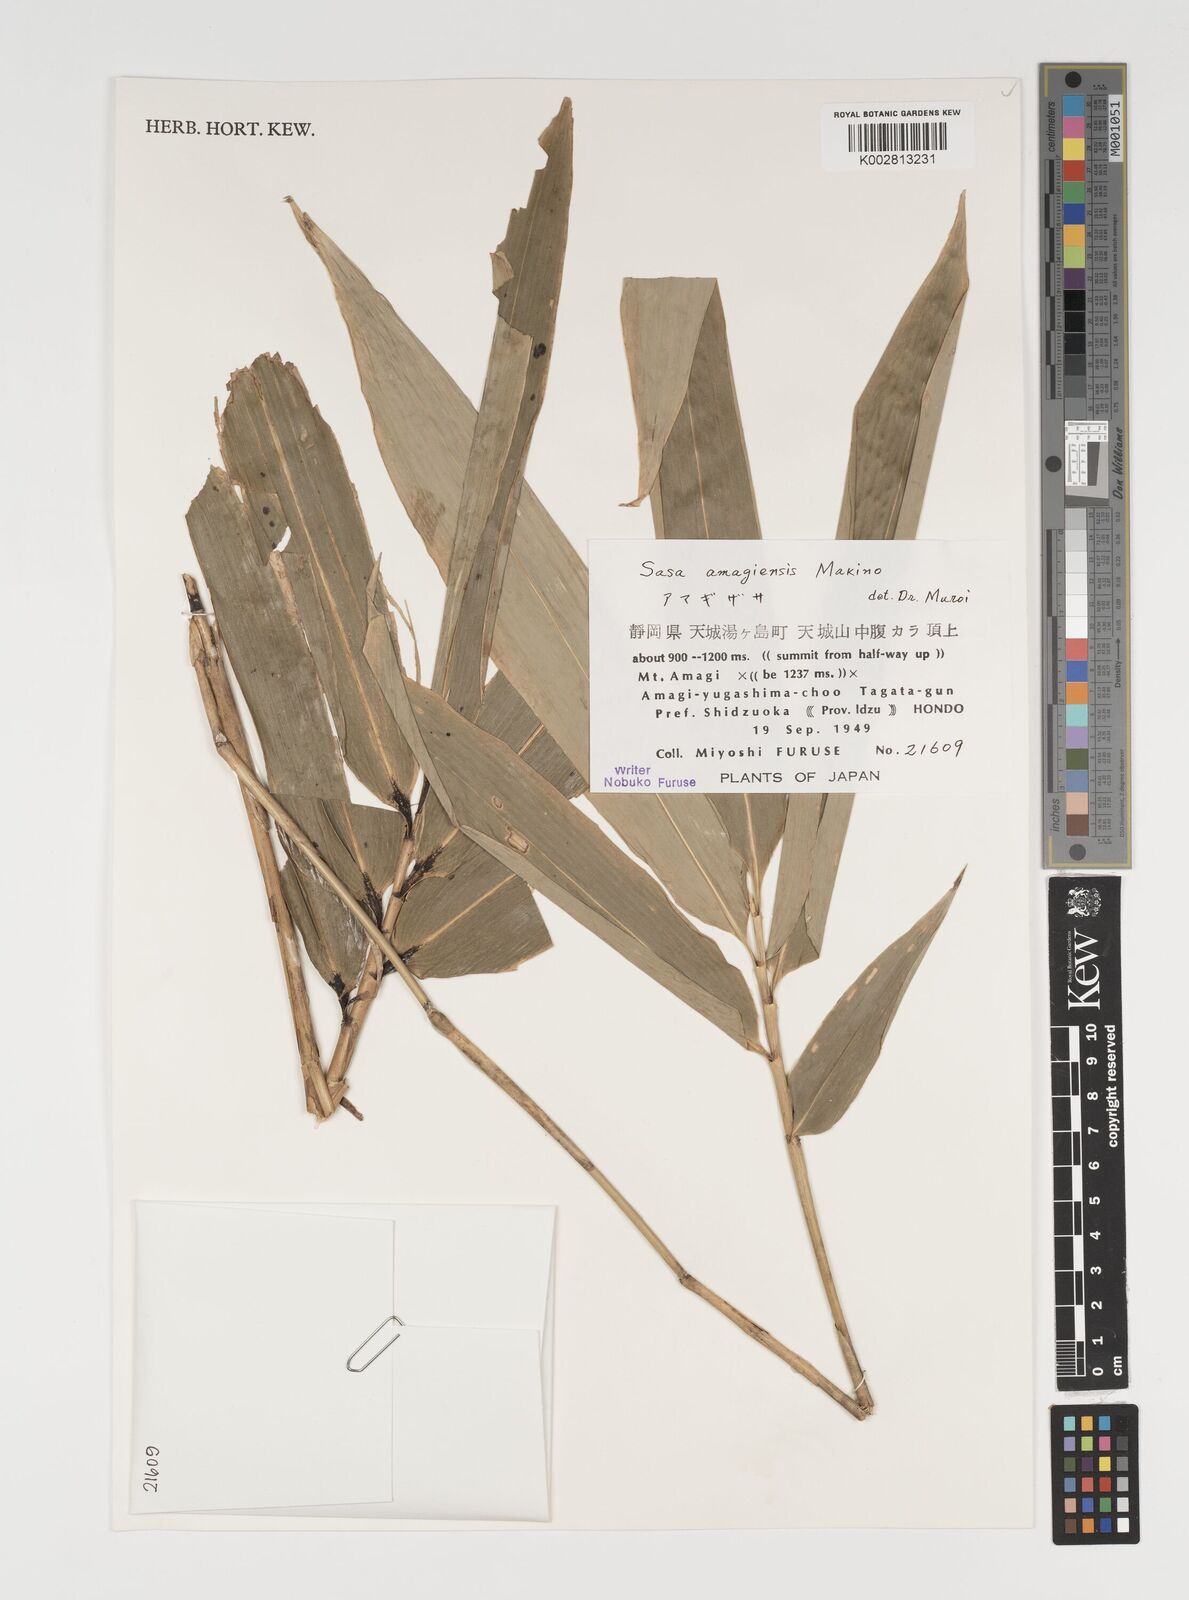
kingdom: Plantae
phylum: Tracheophyta
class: Liliopsida
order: Poales
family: Poaceae
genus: Sasa
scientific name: Sasa tsuboiana
